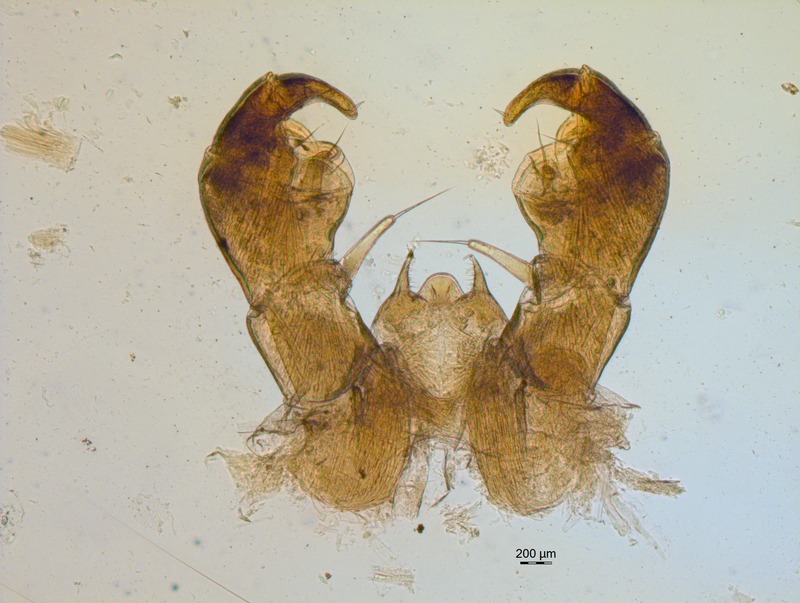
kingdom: Animalia
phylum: Arthropoda
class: Diplopoda
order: Glomerida
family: Glomeridae
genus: Glomeris
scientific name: Glomeris apuana
